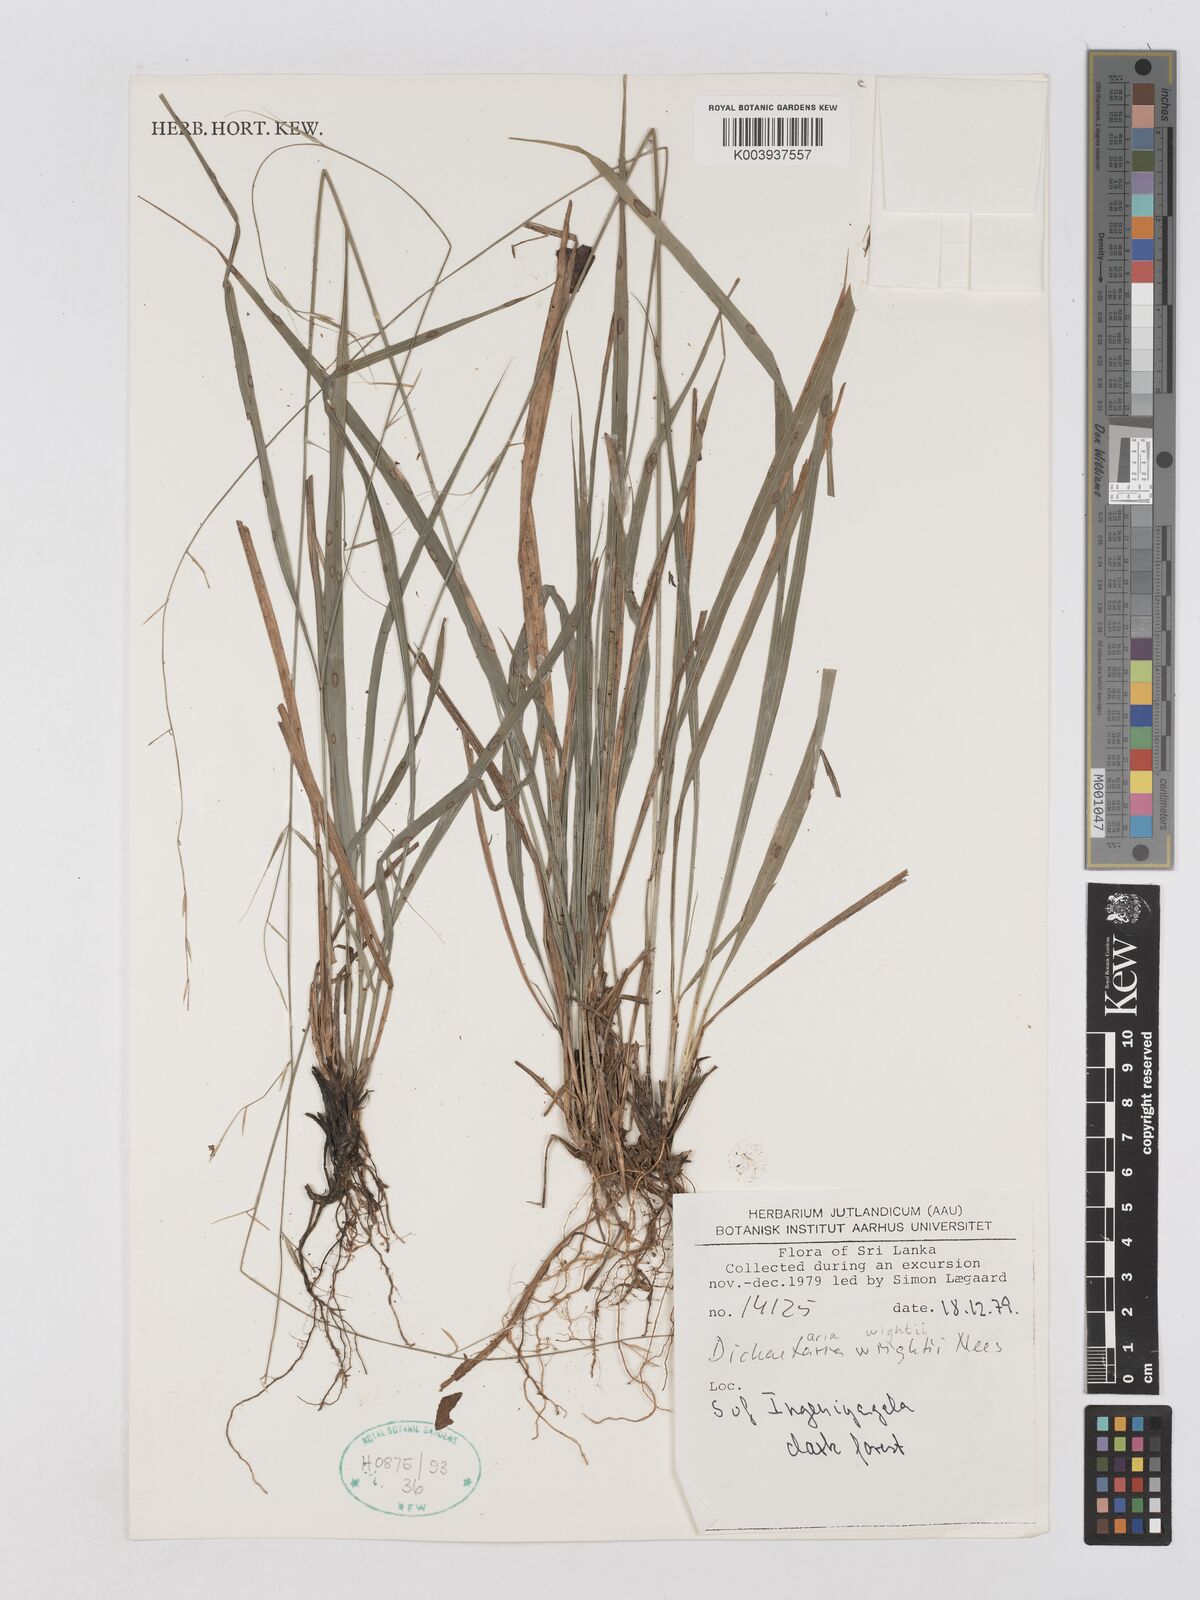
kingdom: Plantae
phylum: Tracheophyta
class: Liliopsida
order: Poales
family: Poaceae
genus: Dichaetaria
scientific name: Dichaetaria wightii
